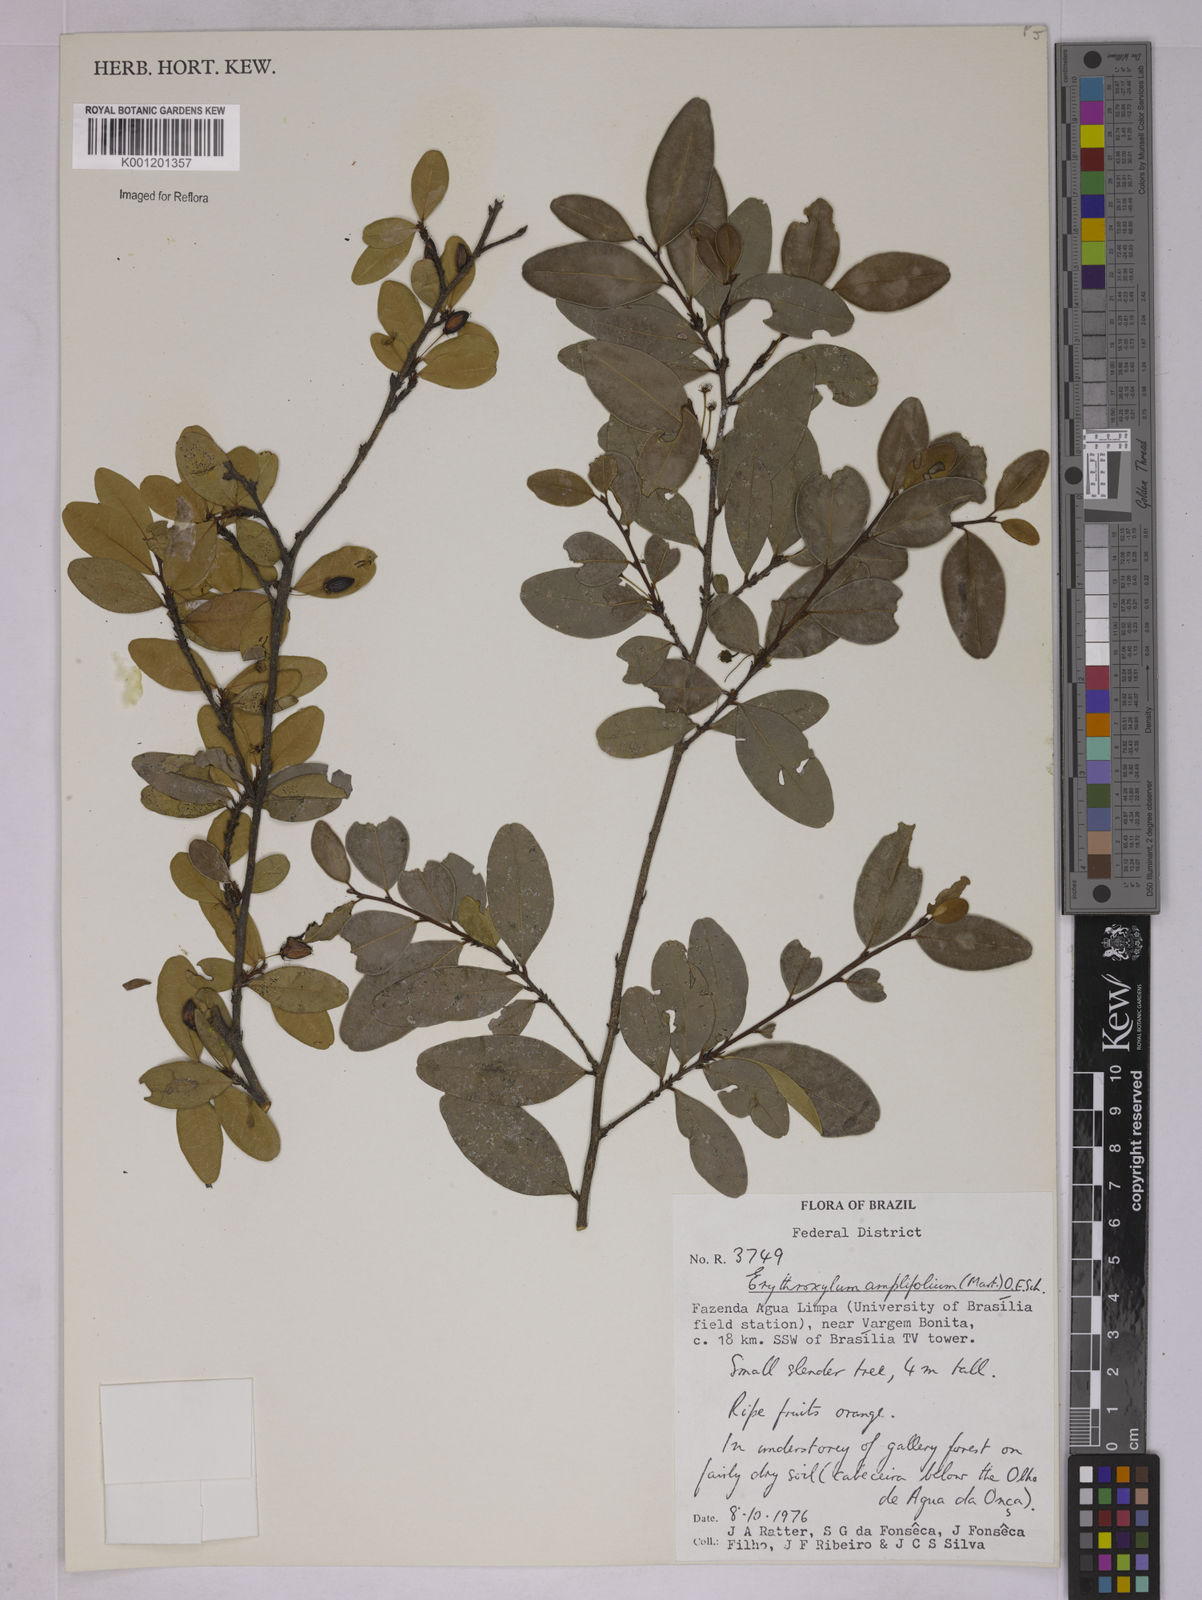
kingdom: Plantae
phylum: Tracheophyta
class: Magnoliopsida
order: Malpighiales
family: Erythroxylaceae
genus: Erythroxylum
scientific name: Erythroxylum
